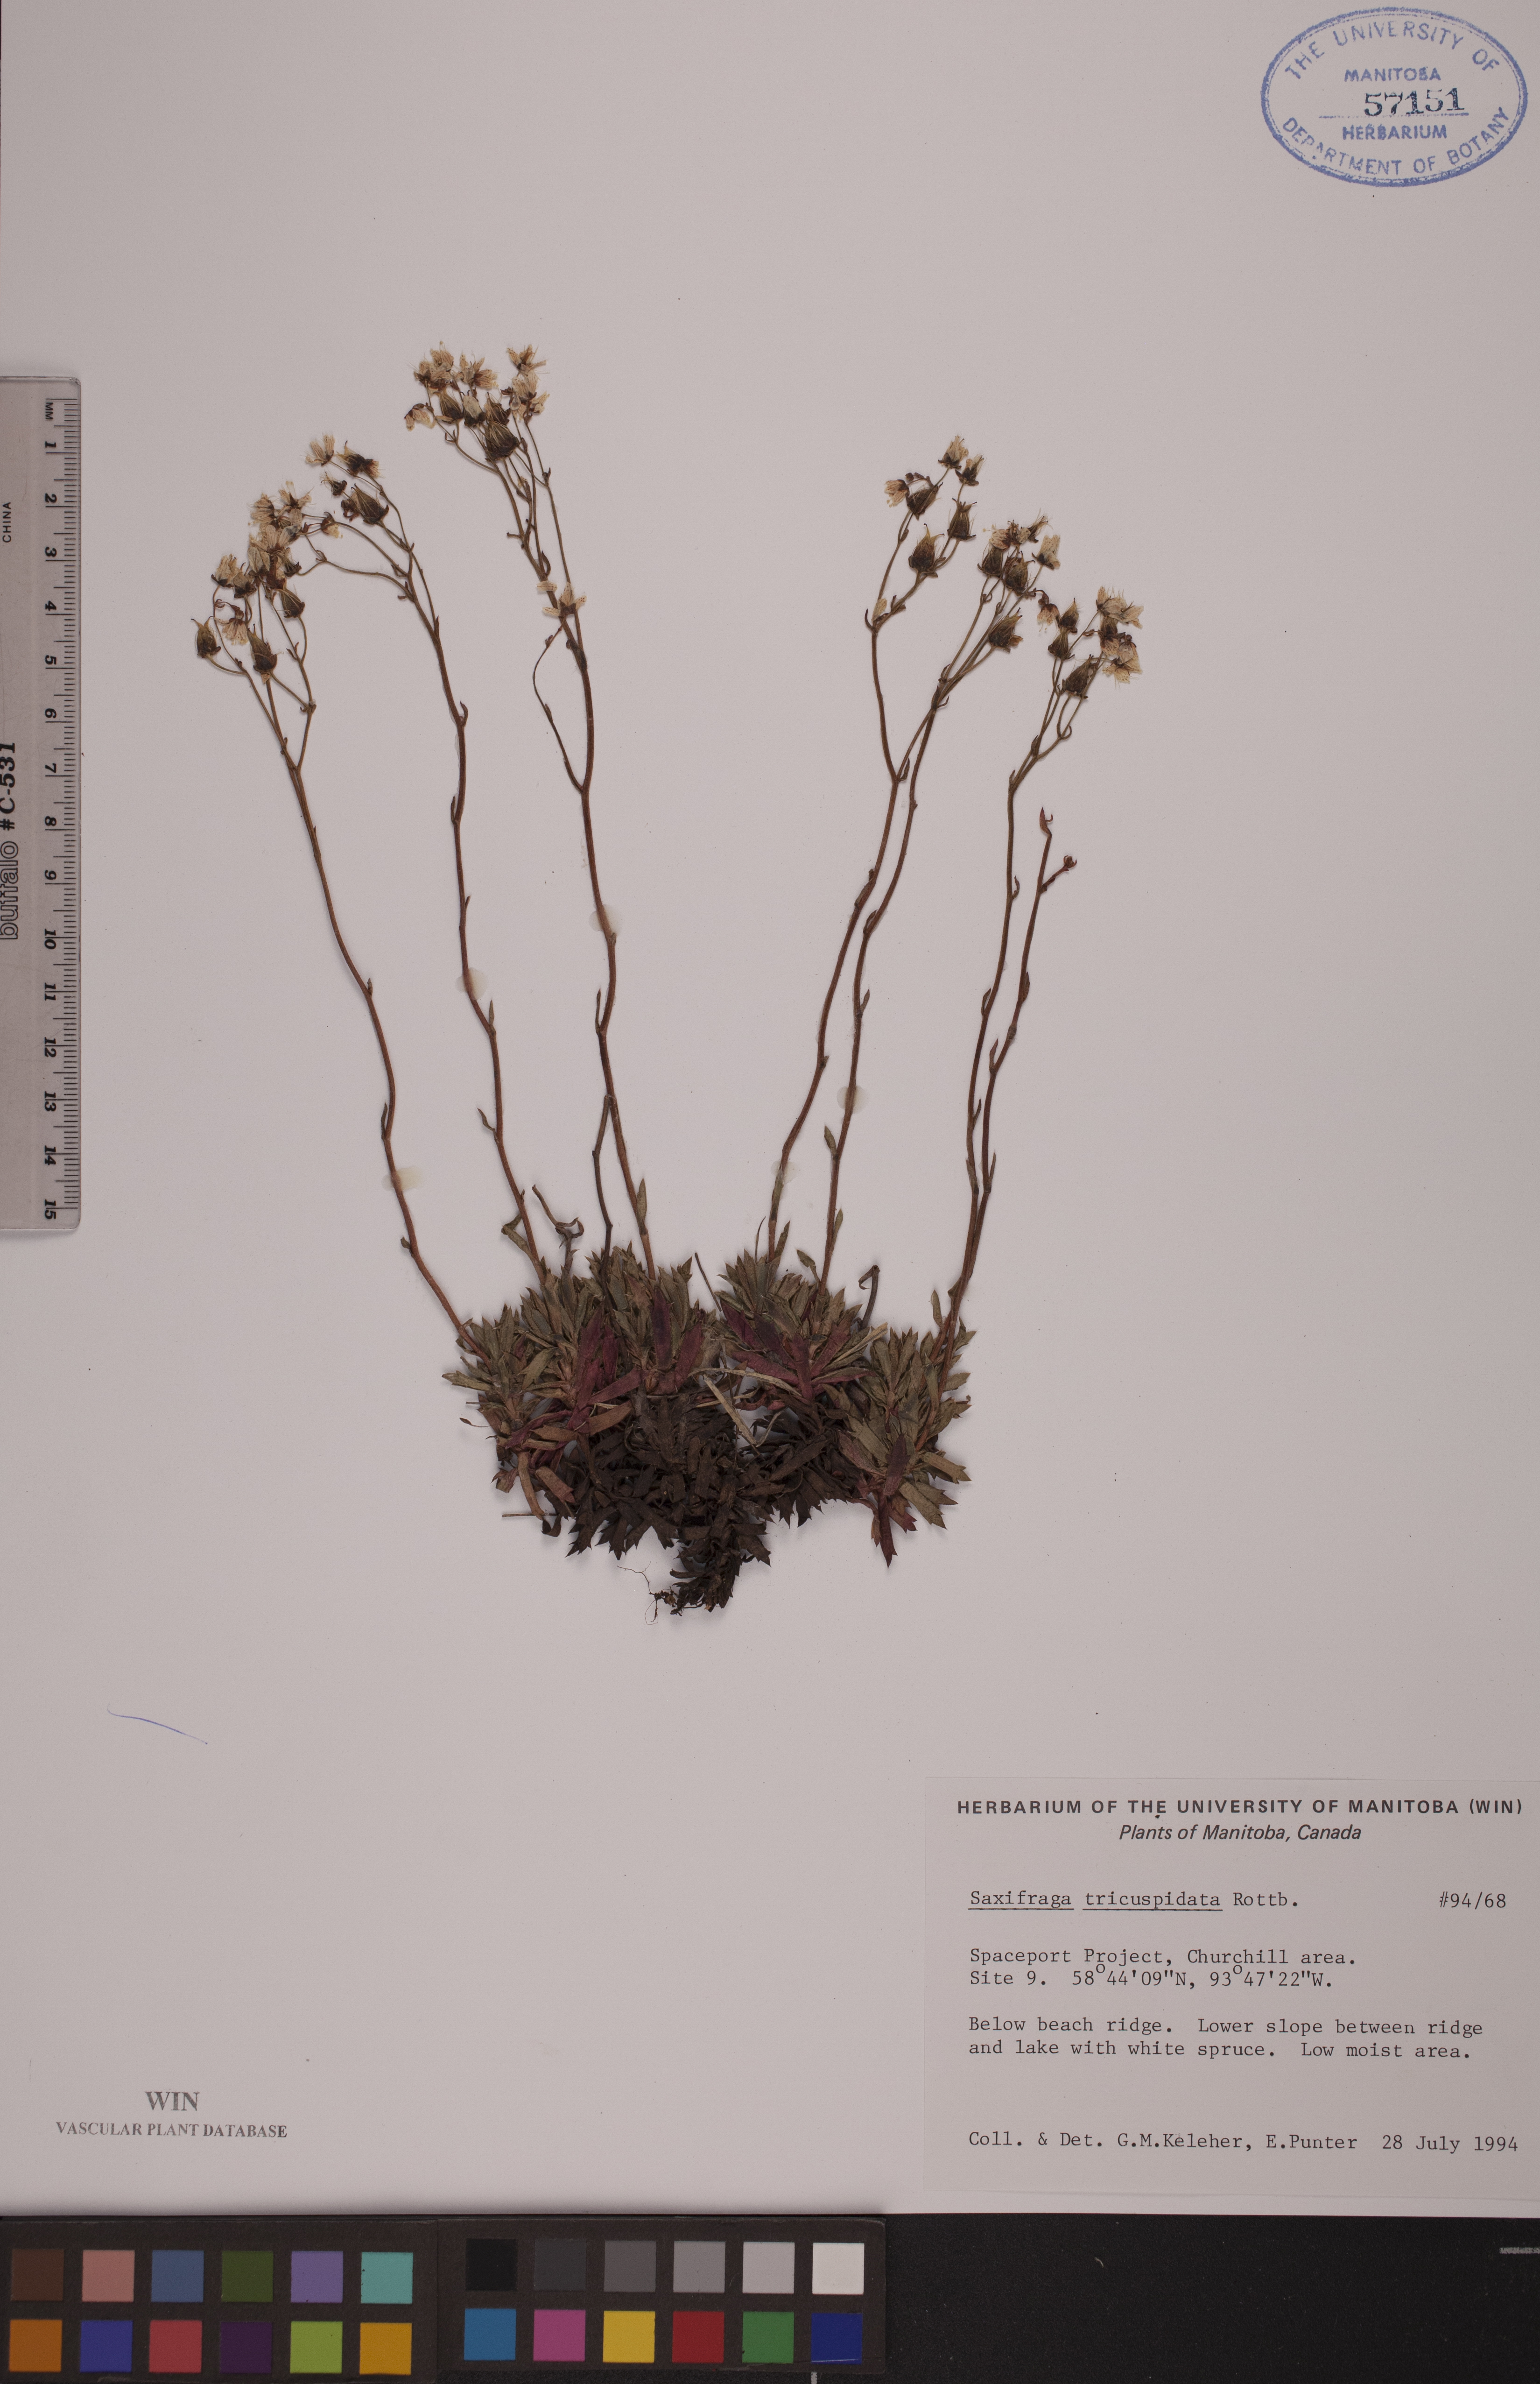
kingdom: Plantae
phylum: Tracheophyta
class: Magnoliopsida
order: Saxifragales
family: Saxifragaceae
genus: Saxifraga
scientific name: Saxifraga tricuspidata
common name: Prickly saxifrage
